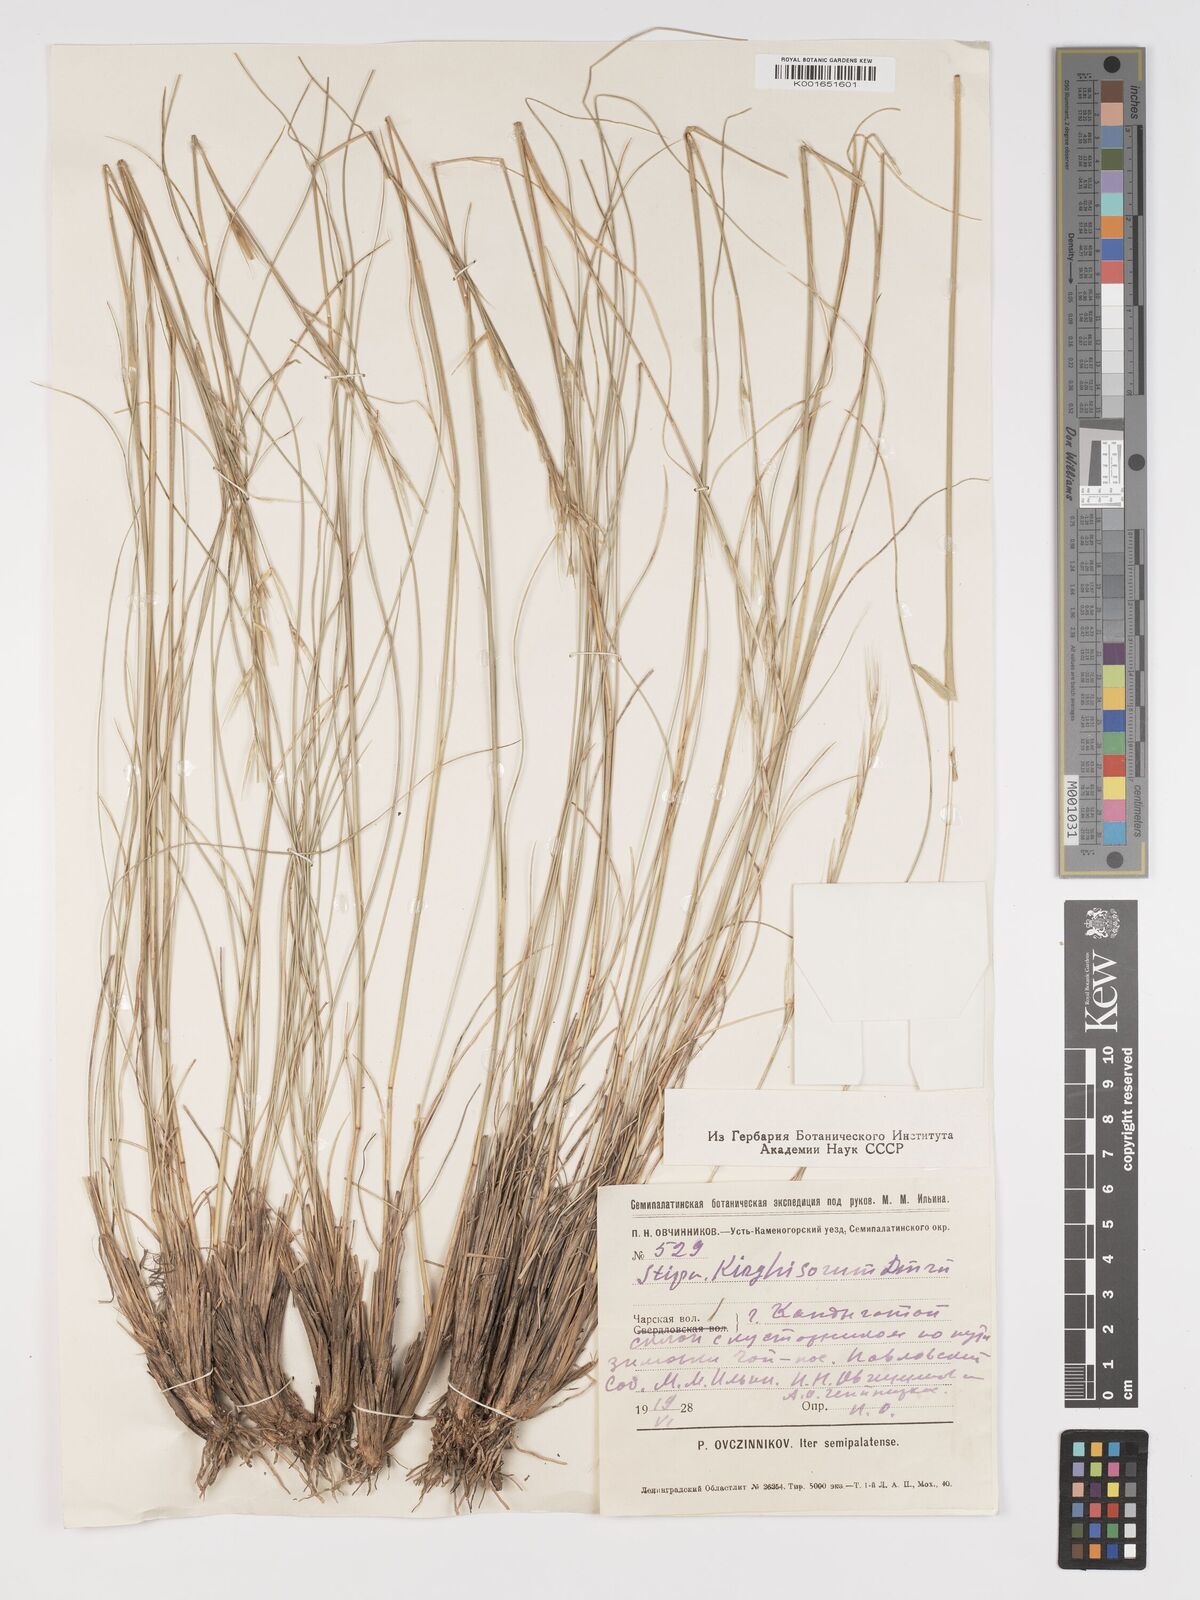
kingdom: Plantae
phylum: Tracheophyta
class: Liliopsida
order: Poales
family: Poaceae
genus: Stipa
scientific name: Stipa kirghisorum
